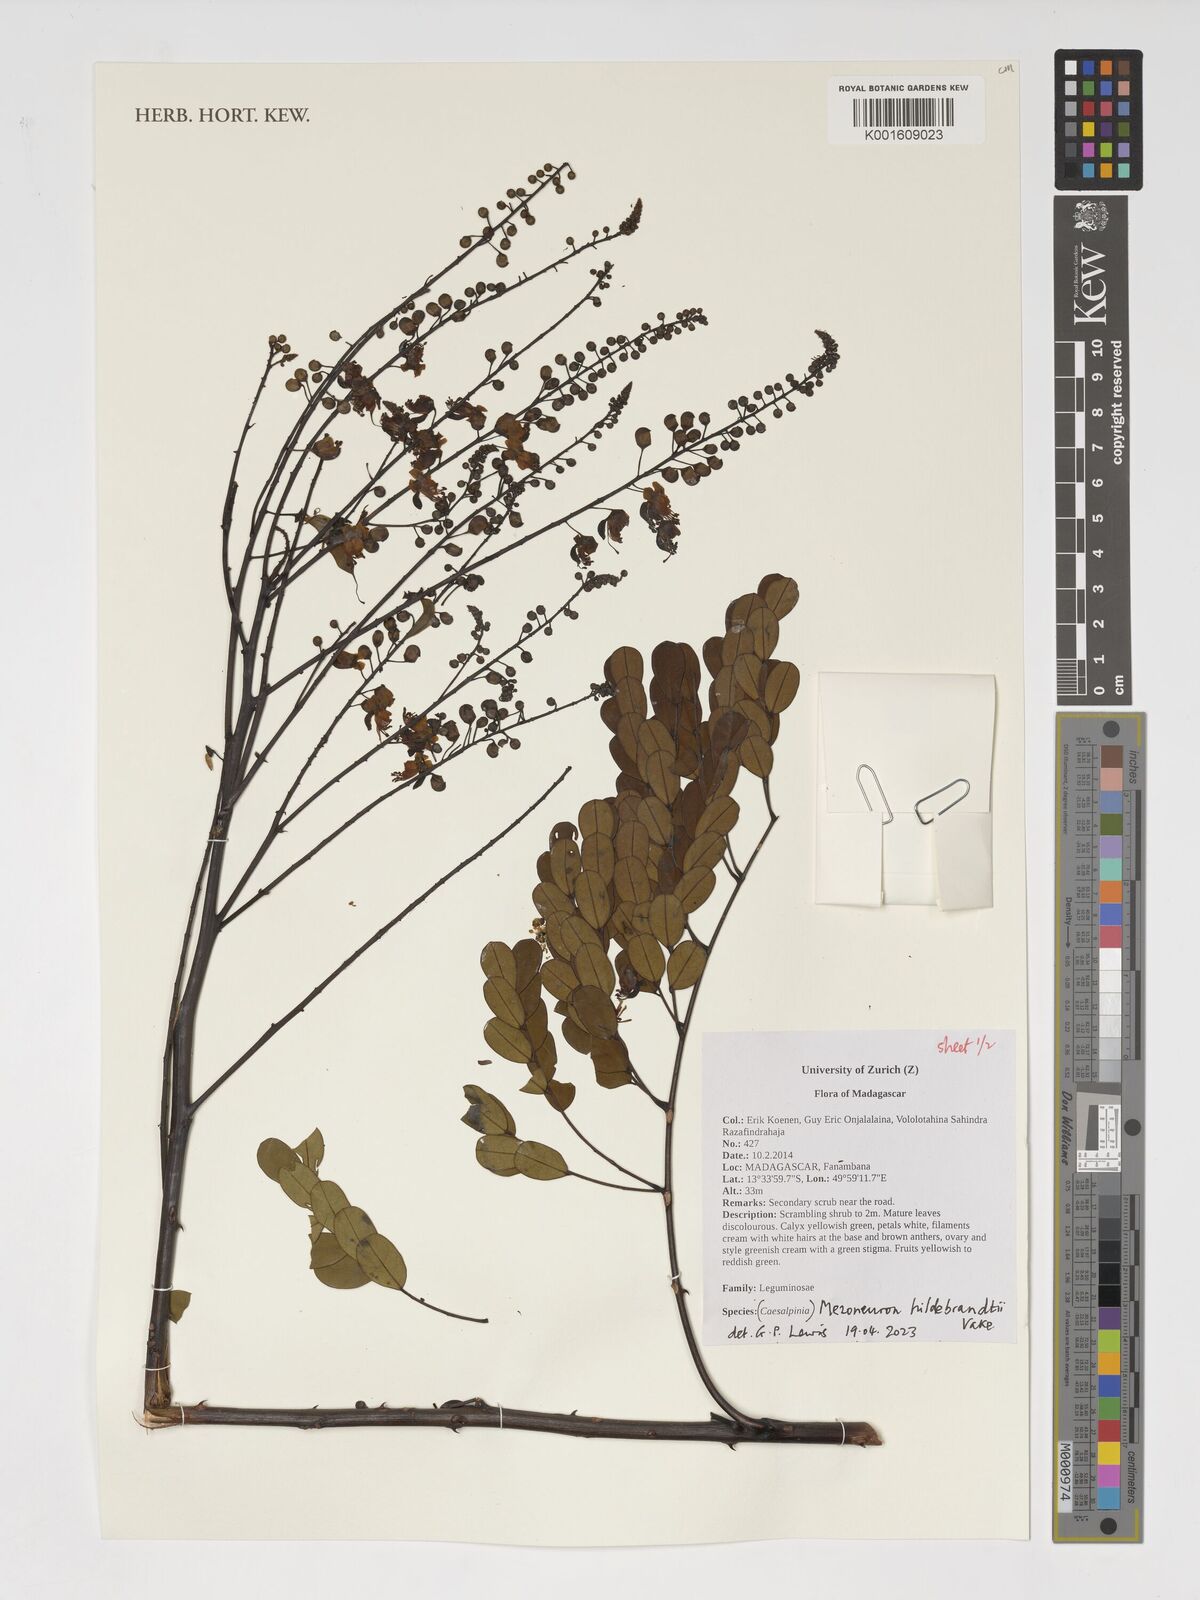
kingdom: Plantae
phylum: Tracheophyta
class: Magnoliopsida
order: Fabales
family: Fabaceae
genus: Mezoneuron
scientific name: Mezoneuron hildebrandtii
